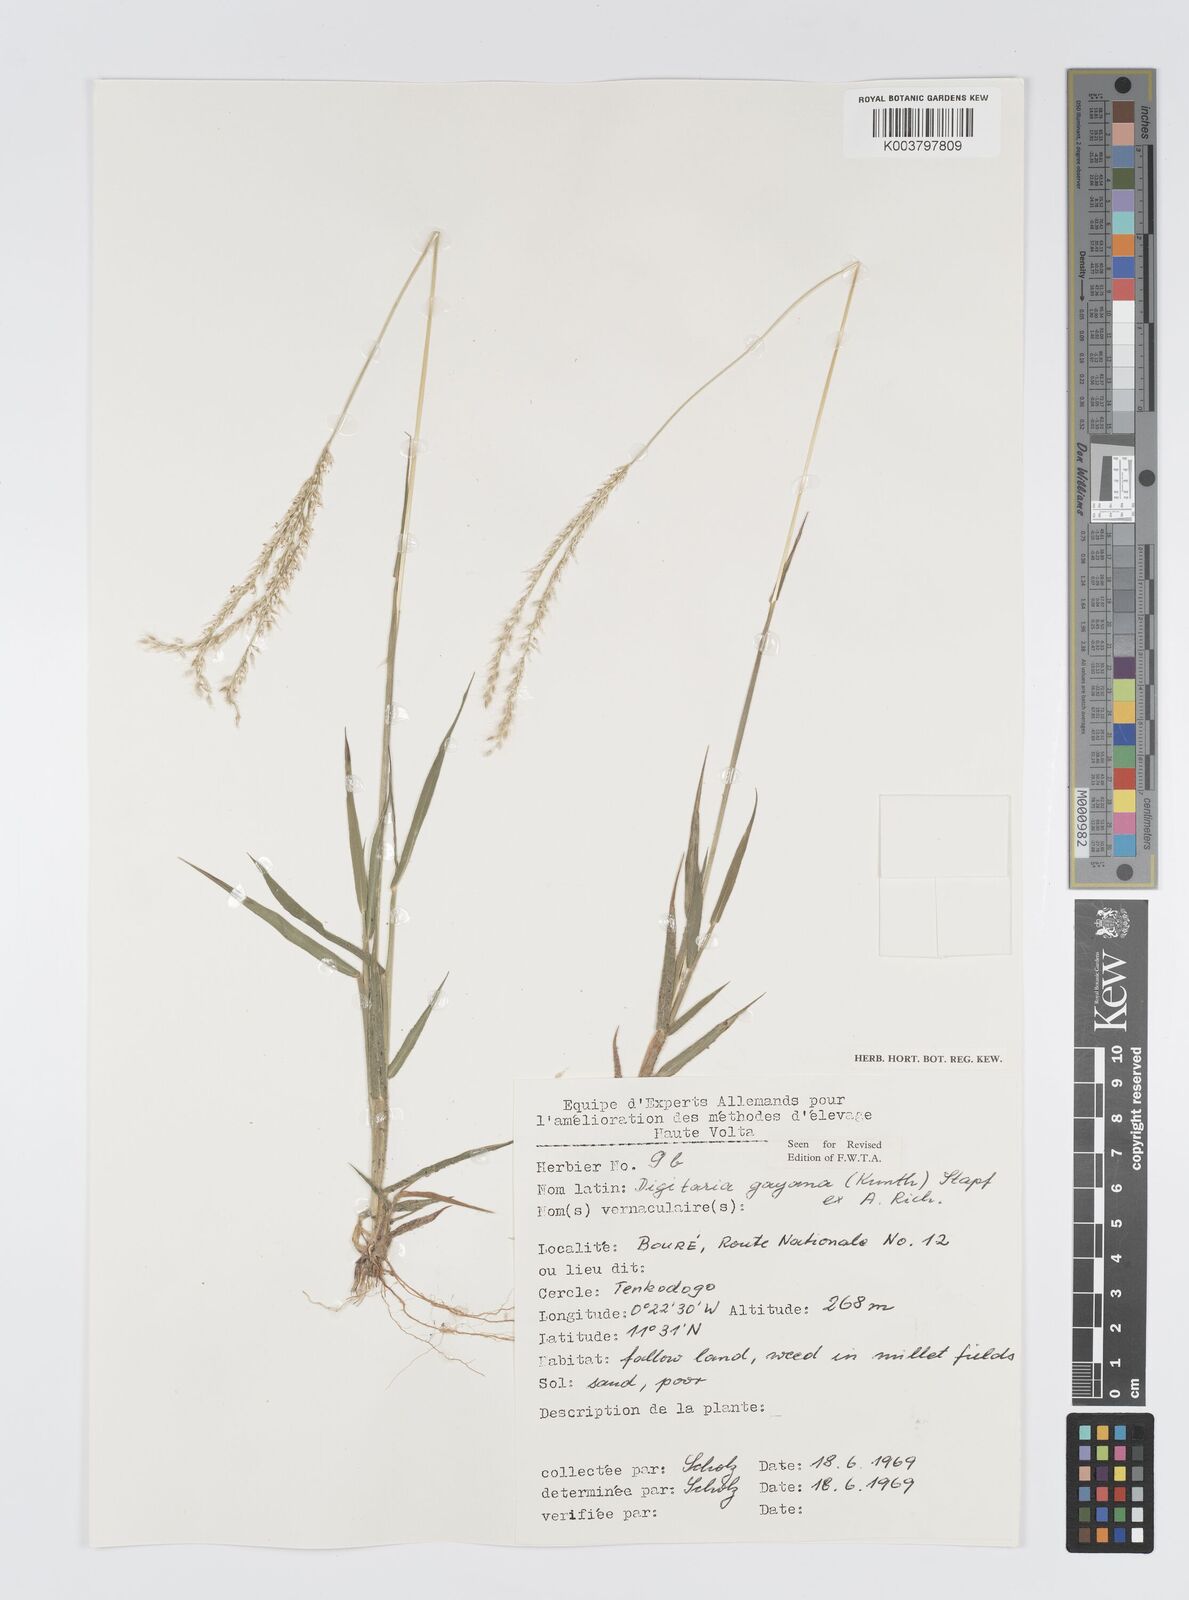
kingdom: Plantae
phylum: Tracheophyta
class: Liliopsida
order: Poales
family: Poaceae
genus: Digitaria
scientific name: Digitaria gayana
